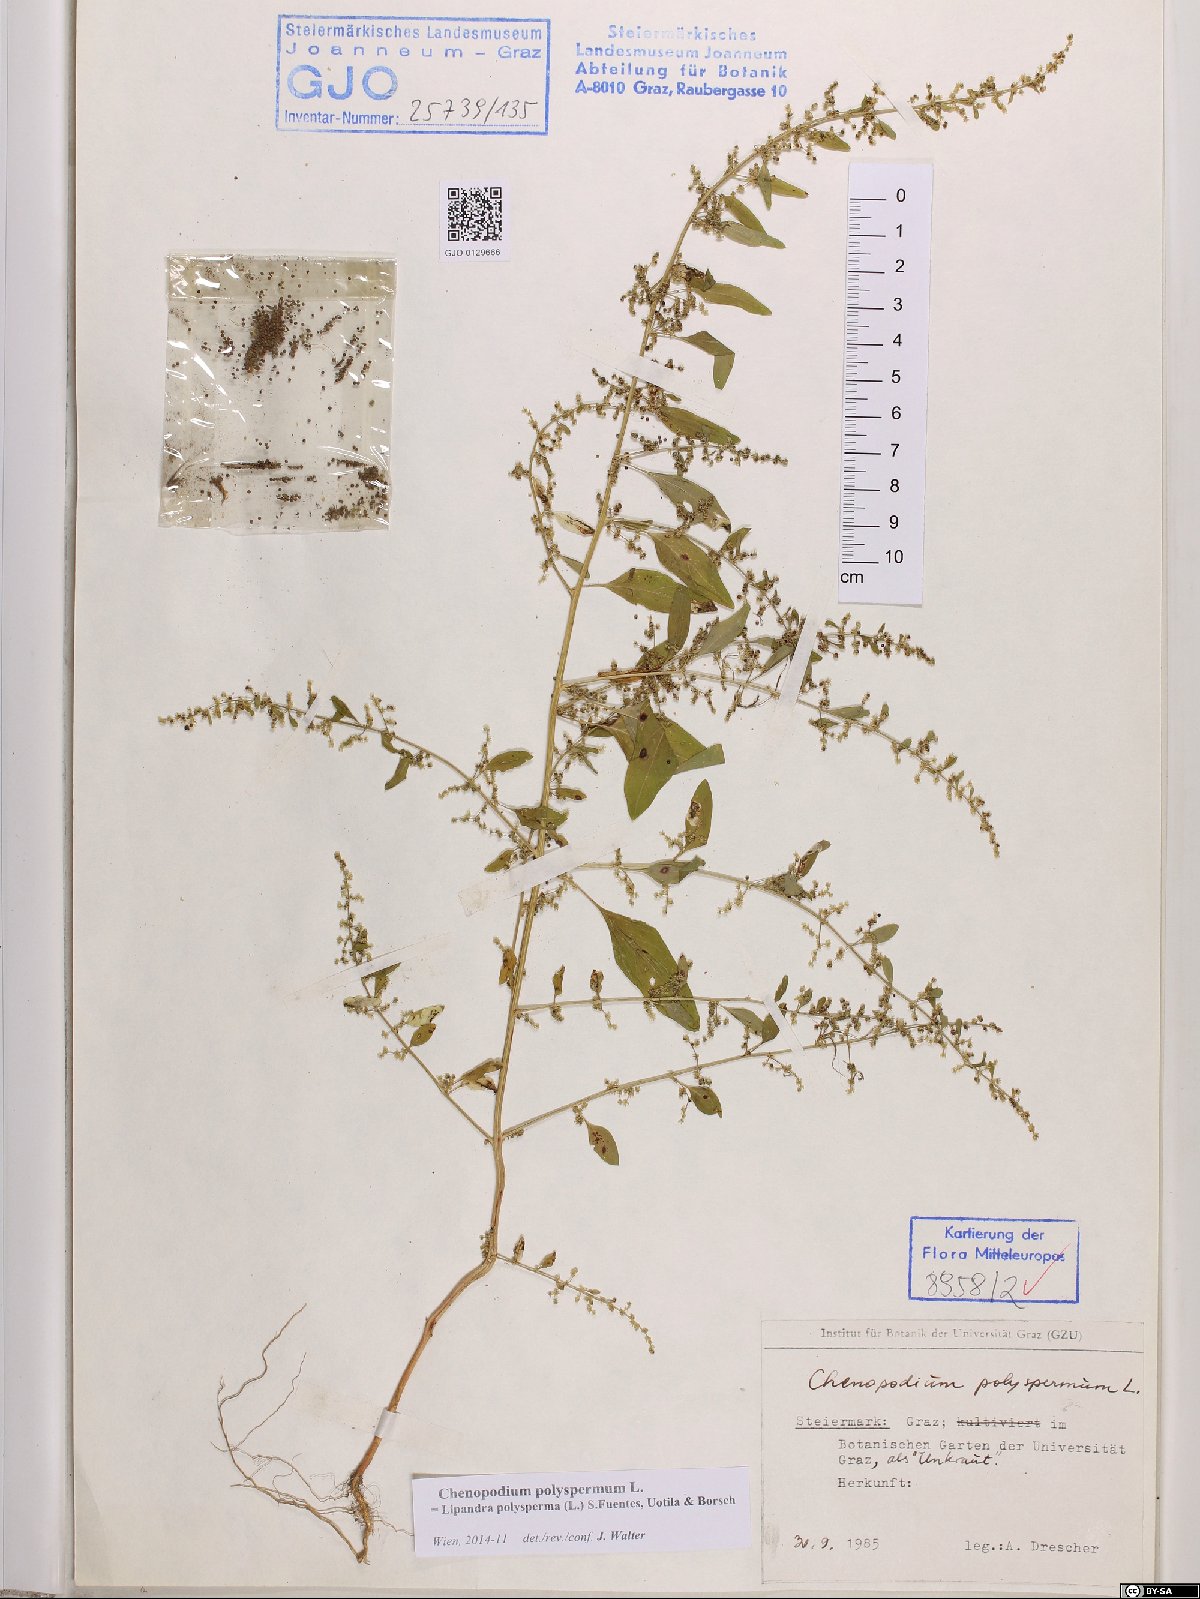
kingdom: Plantae
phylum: Tracheophyta
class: Magnoliopsida
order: Caryophyllales
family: Amaranthaceae
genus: Lipandra
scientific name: Lipandra polysperma
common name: Many-seed goosefoot
